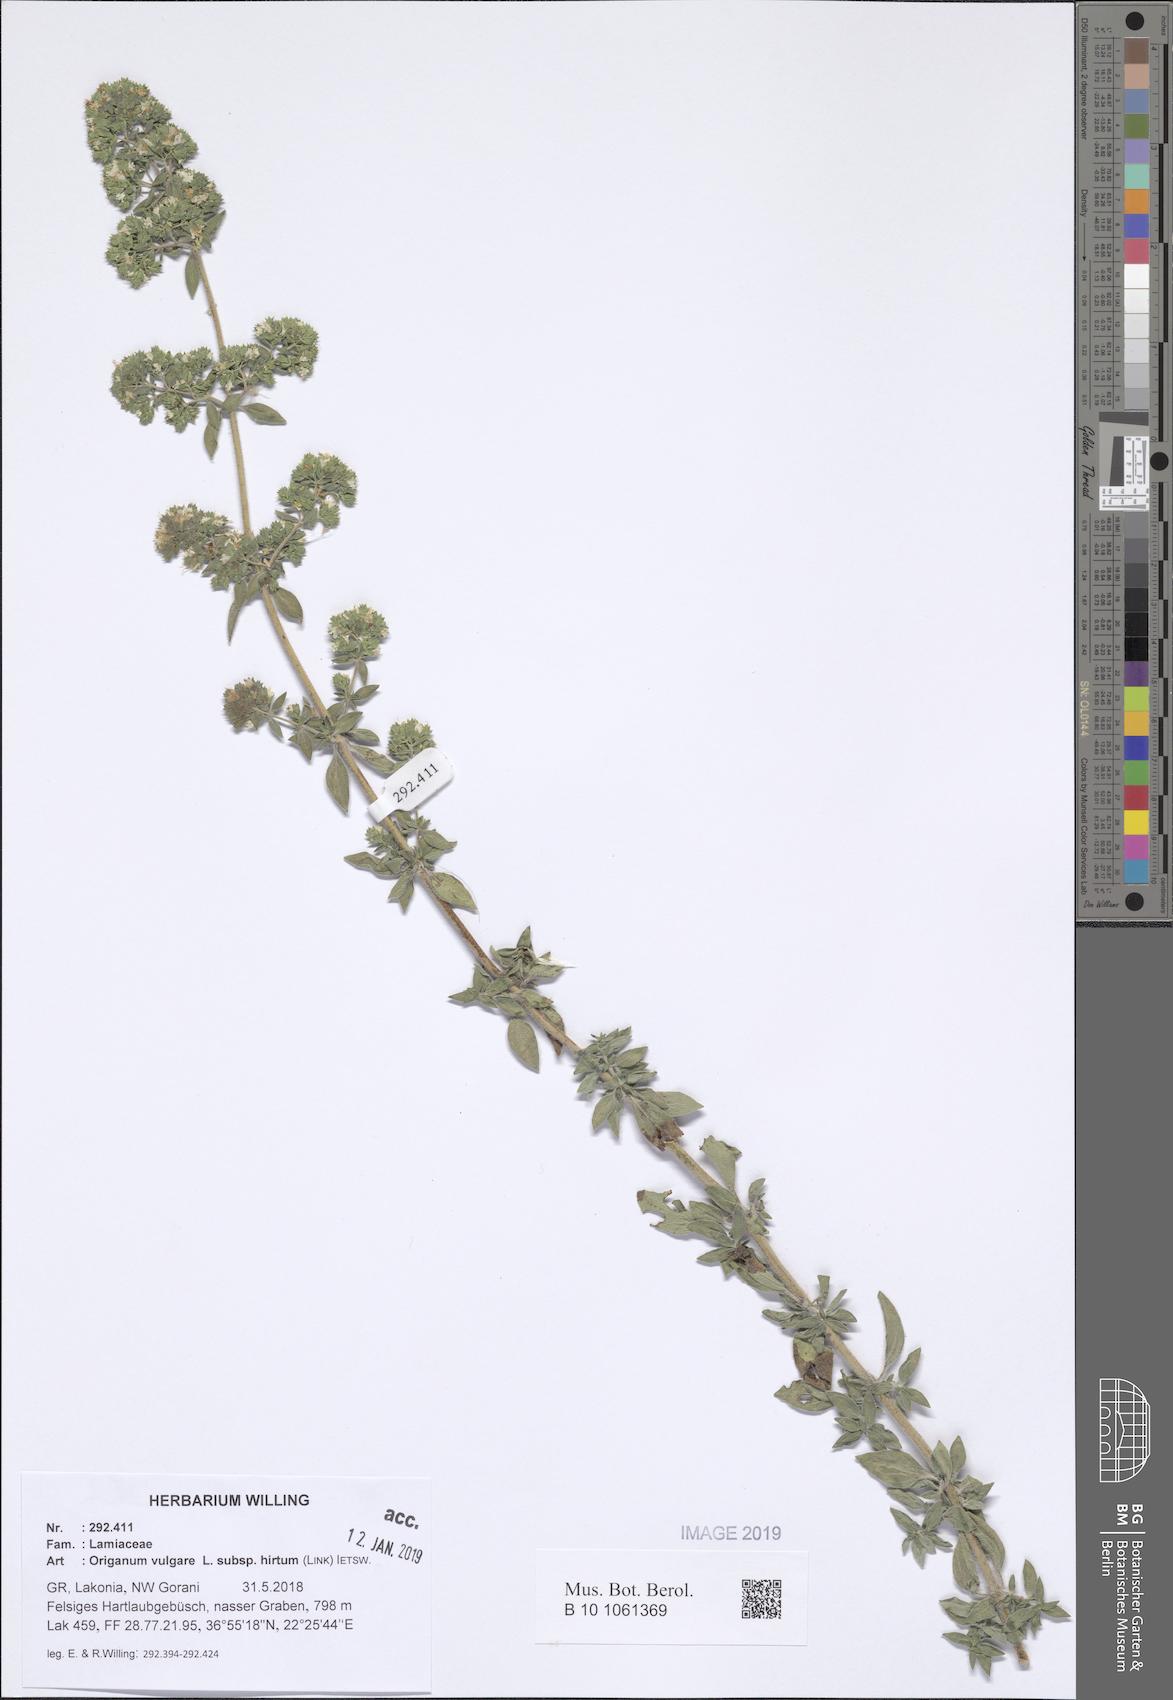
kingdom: Plantae
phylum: Tracheophyta
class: Magnoliopsida
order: Lamiales
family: Lamiaceae
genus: Origanum
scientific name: Origanum vulgare
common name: Wild marjoram
